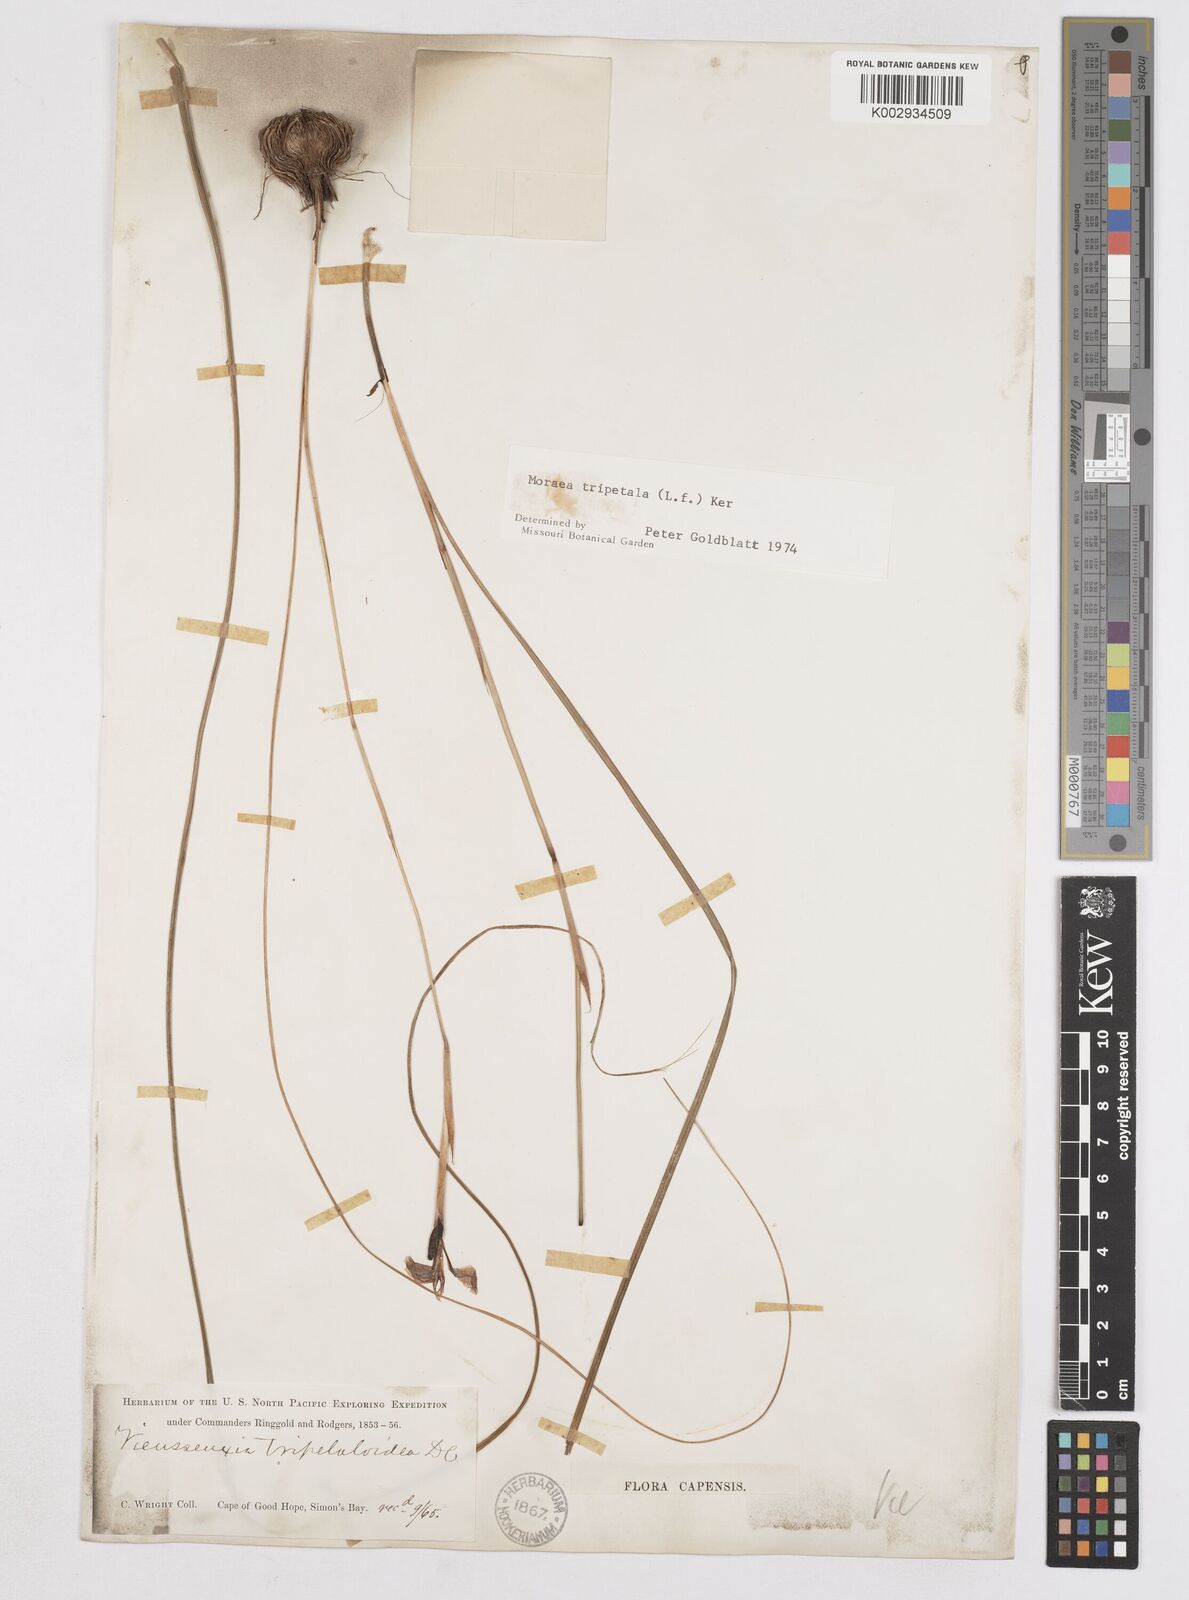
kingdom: Plantae
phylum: Tracheophyta
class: Liliopsida
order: Asparagales
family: Iridaceae
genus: Moraea
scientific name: Moraea tripetala
